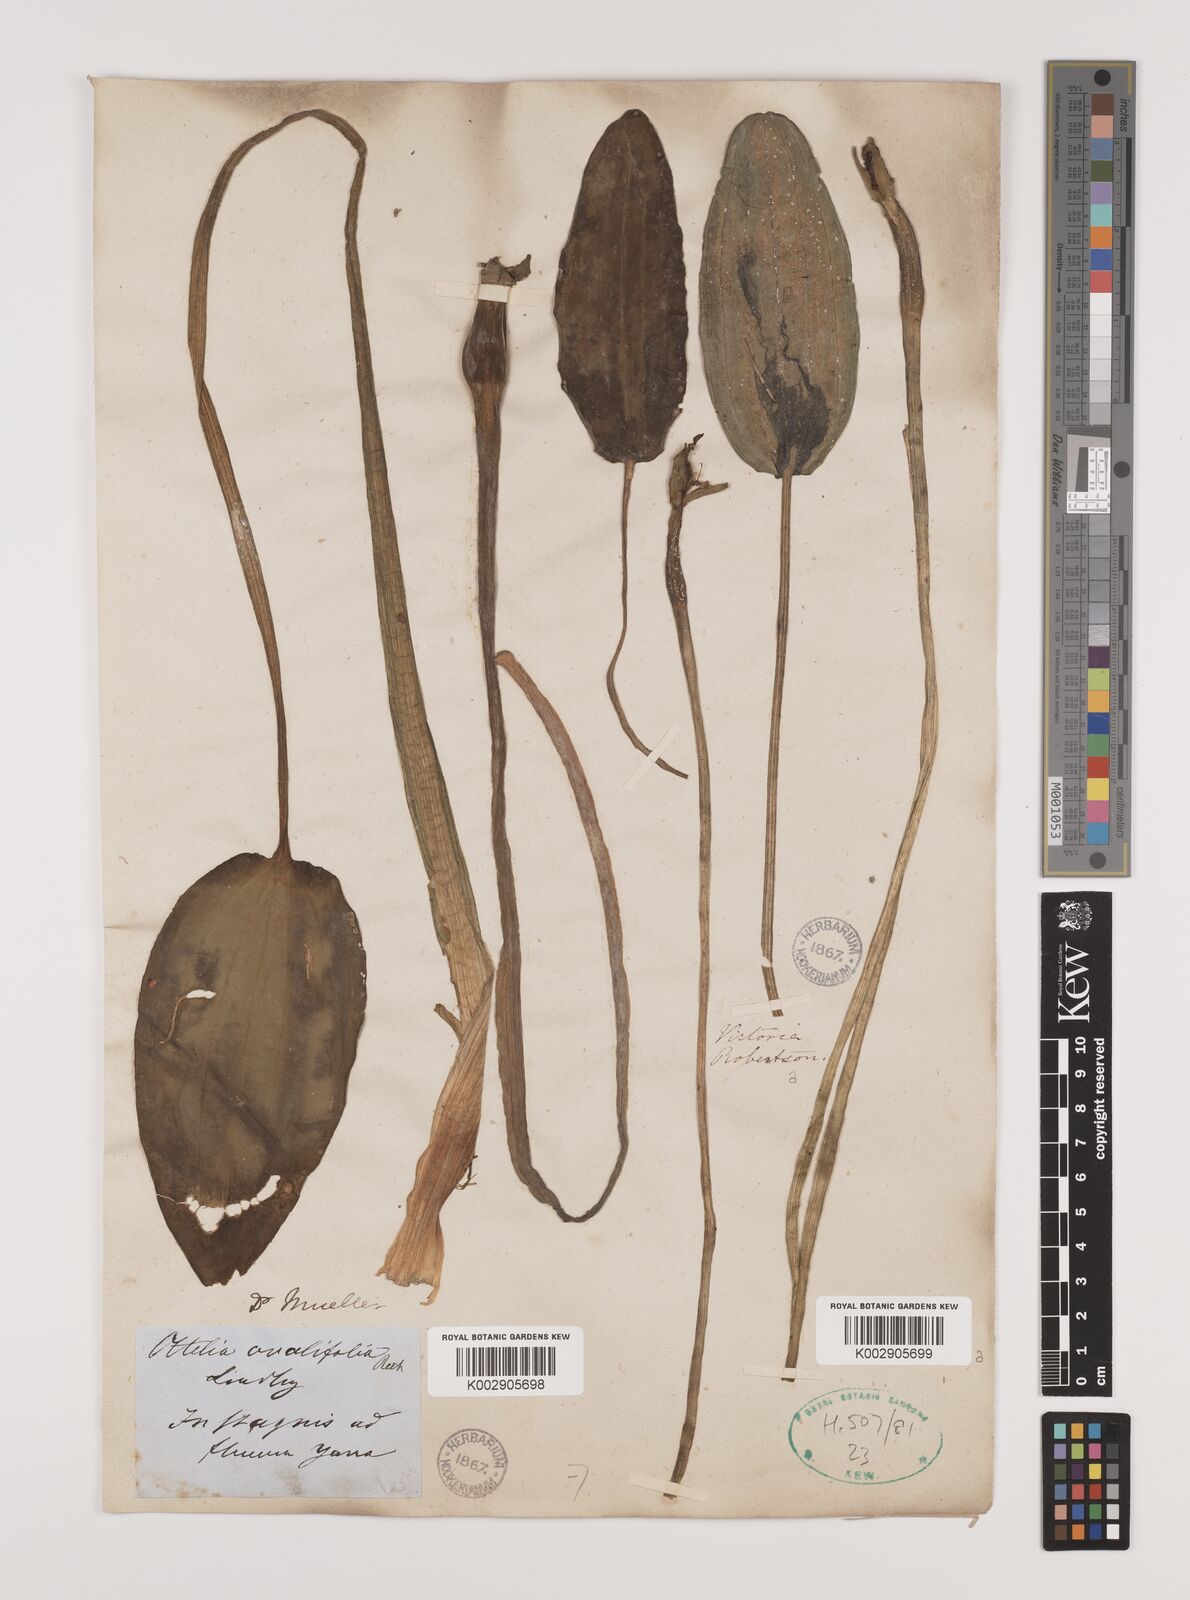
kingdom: Plantae
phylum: Tracheophyta
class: Liliopsida
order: Alismatales
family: Hydrocharitaceae
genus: Ottelia
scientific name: Ottelia ovalifolia
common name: Swamp-lily
